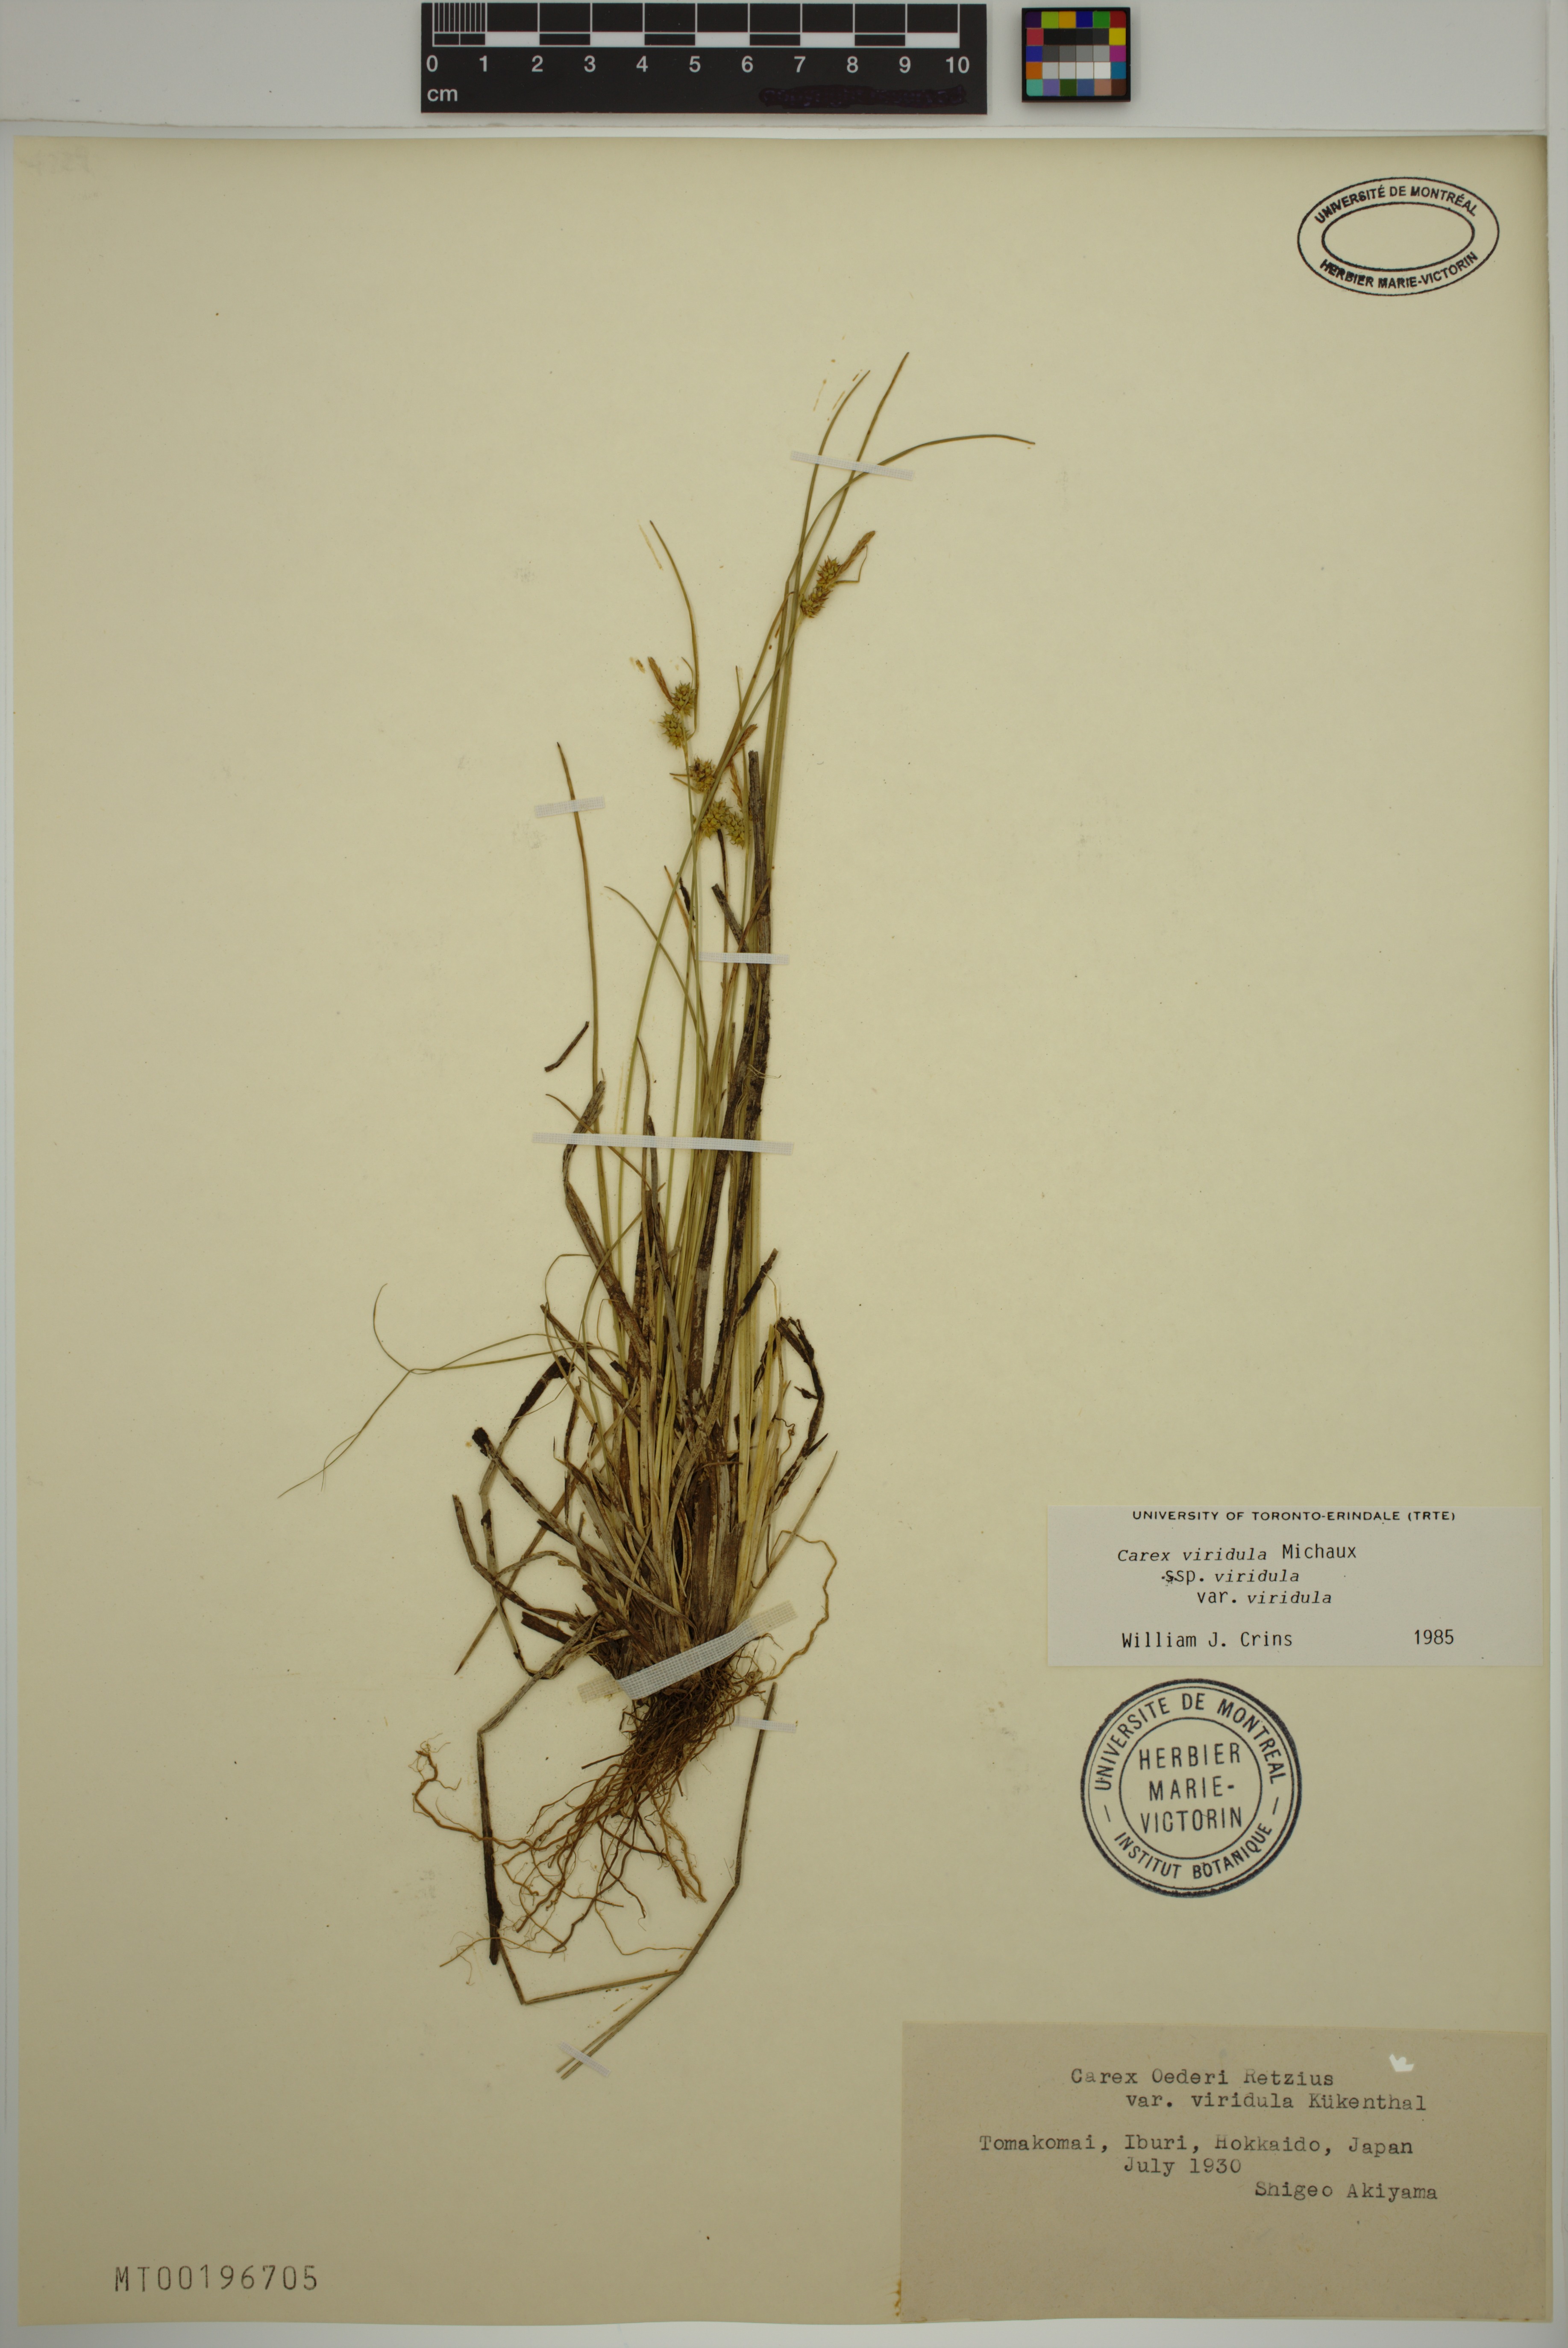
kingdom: Plantae
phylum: Tracheophyta
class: Liliopsida
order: Poales
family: Cyperaceae
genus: Carex
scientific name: Carex oederi
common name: Common & small-fruited yellow-sedge
